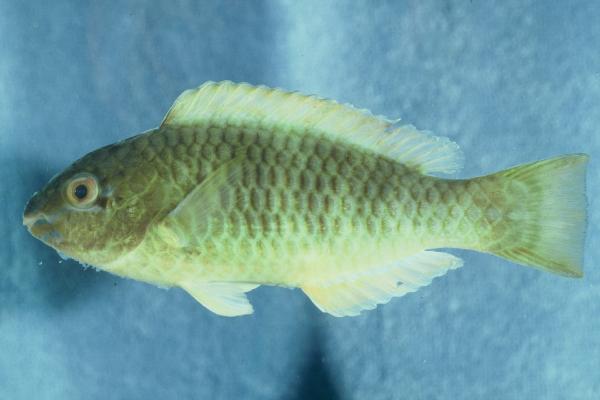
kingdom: Animalia
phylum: Chordata
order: Perciformes
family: Scaridae
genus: Scarus
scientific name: Scarus
